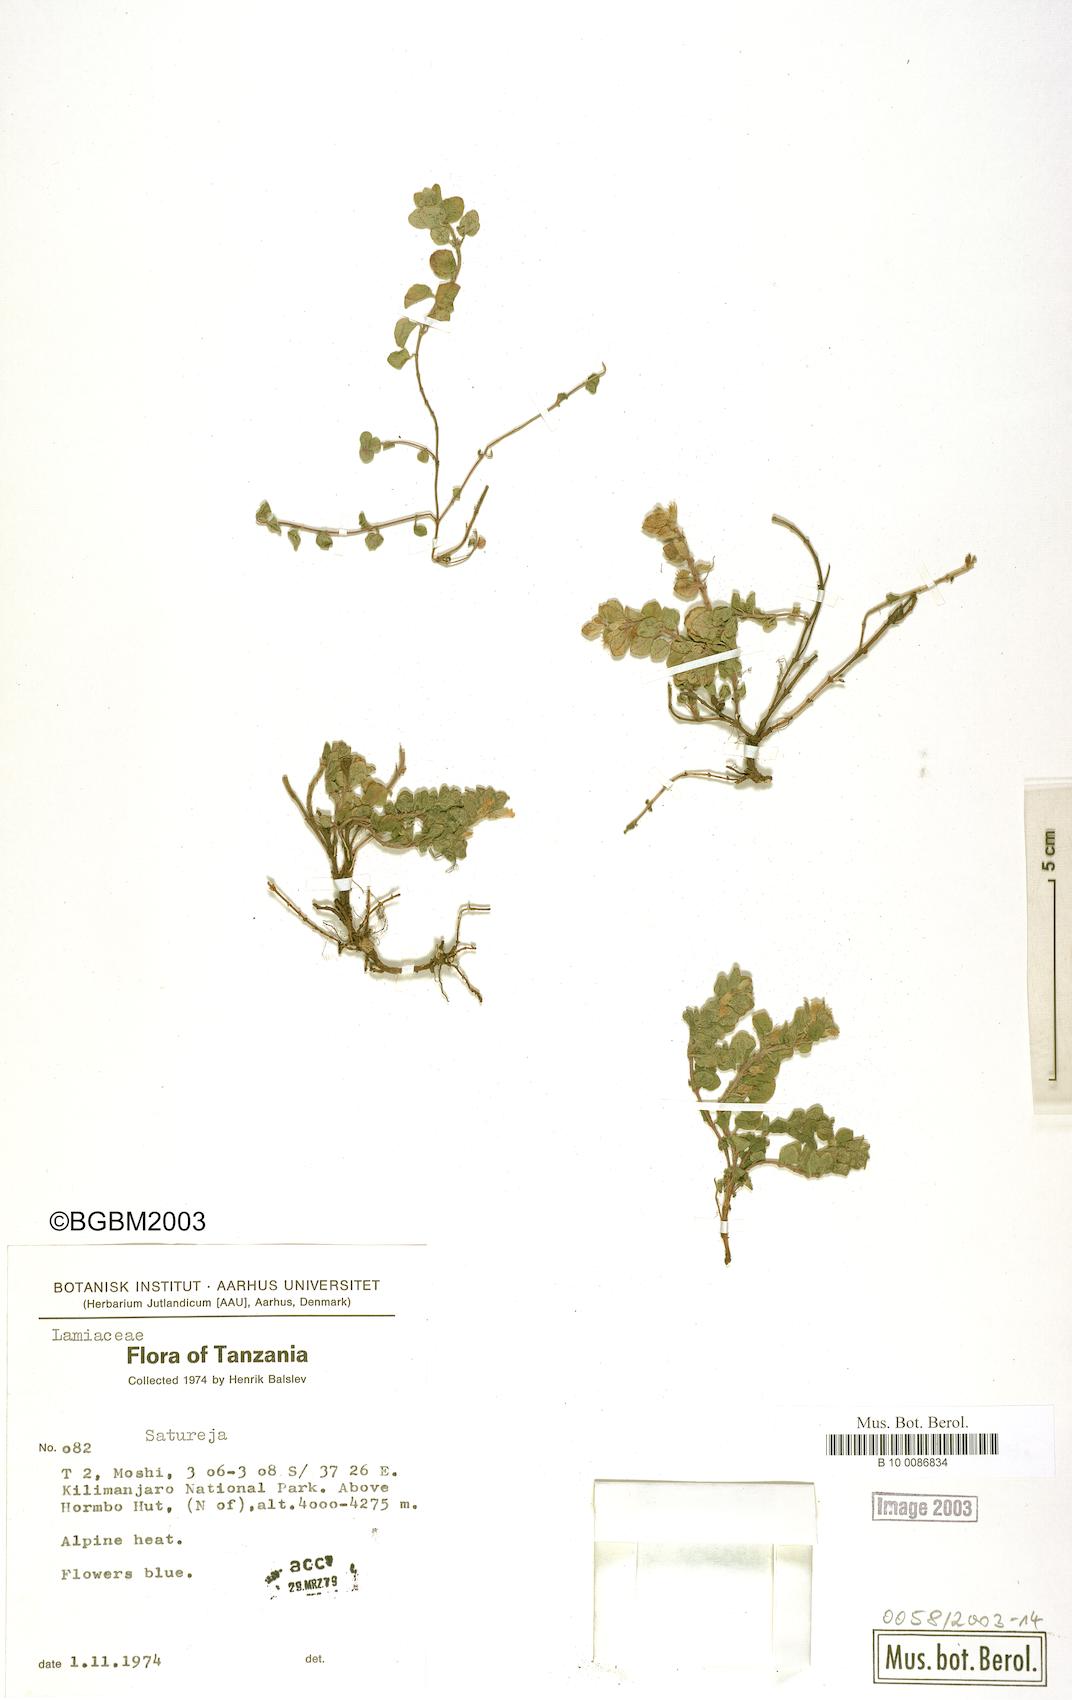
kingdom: Plantae
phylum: Tracheophyta
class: Magnoliopsida
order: Lamiales
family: Lamiaceae
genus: Satureja
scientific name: Satureja
